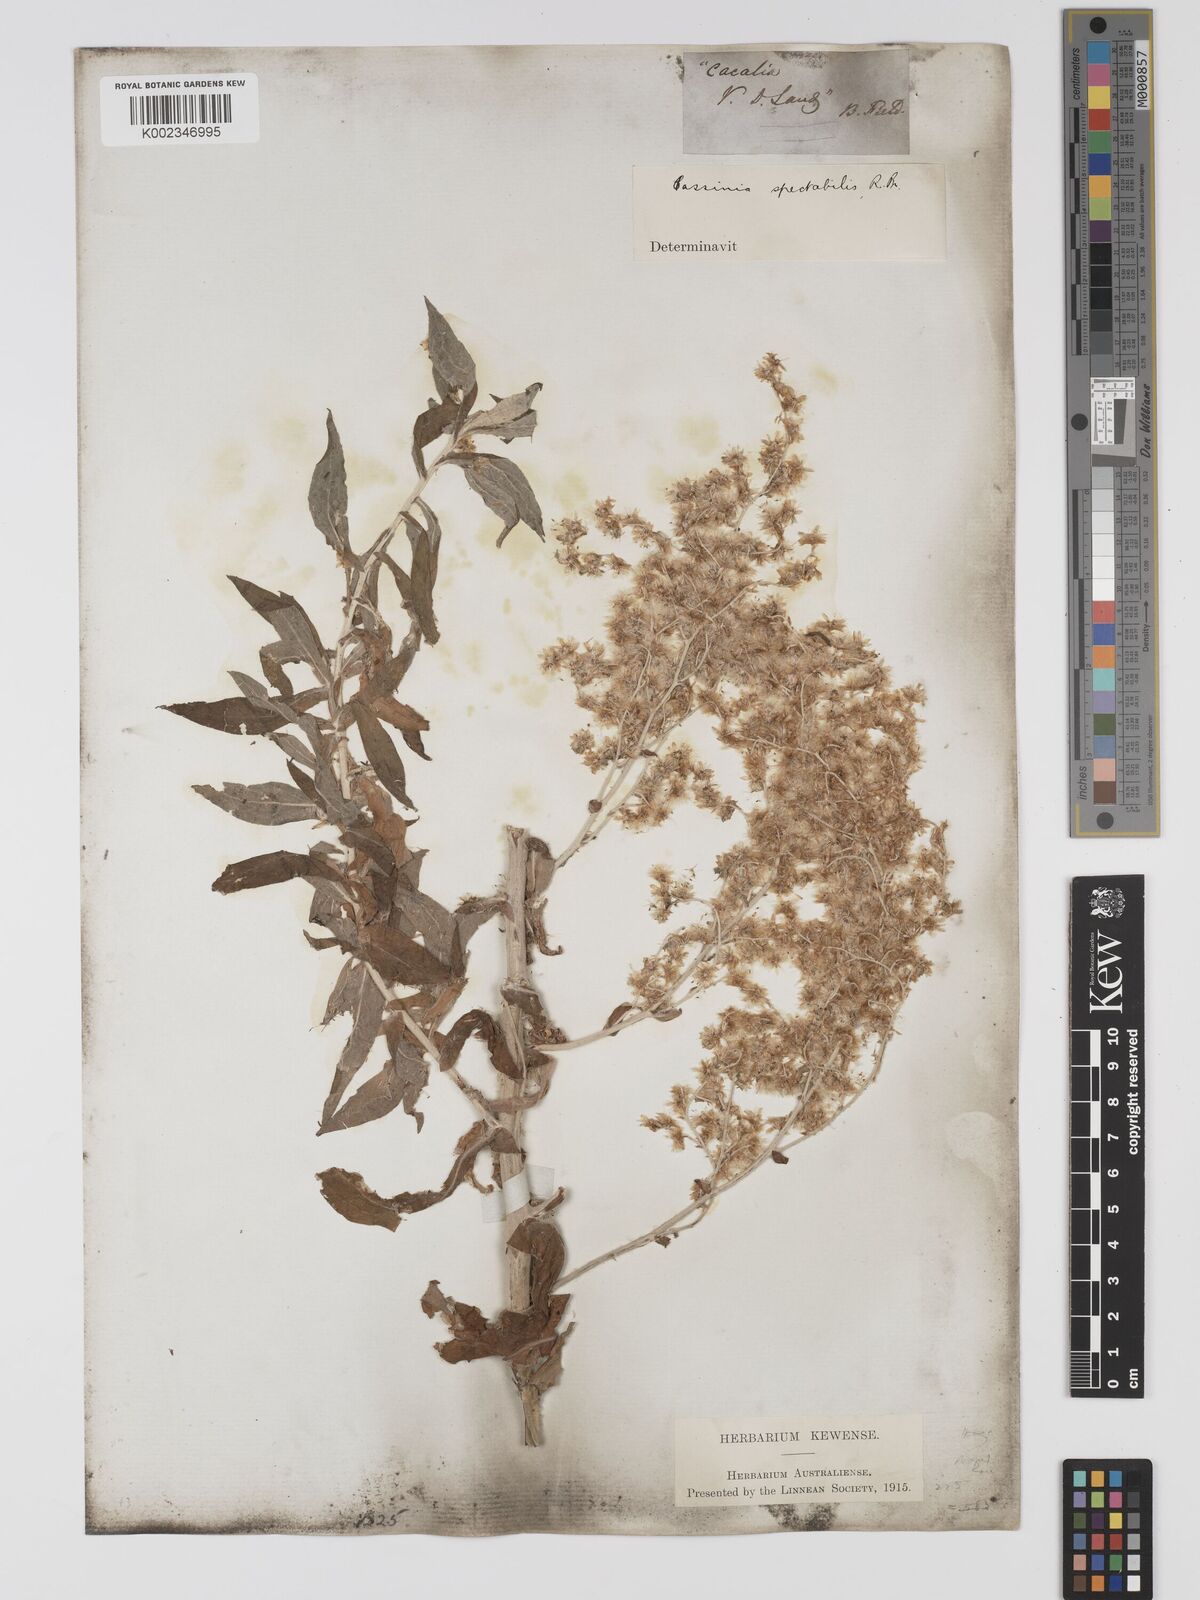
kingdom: Plantae
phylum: Tracheophyta
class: Magnoliopsida
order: Asterales
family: Asteraceae
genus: Apalochlamys
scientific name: Apalochlamys spectabilis
